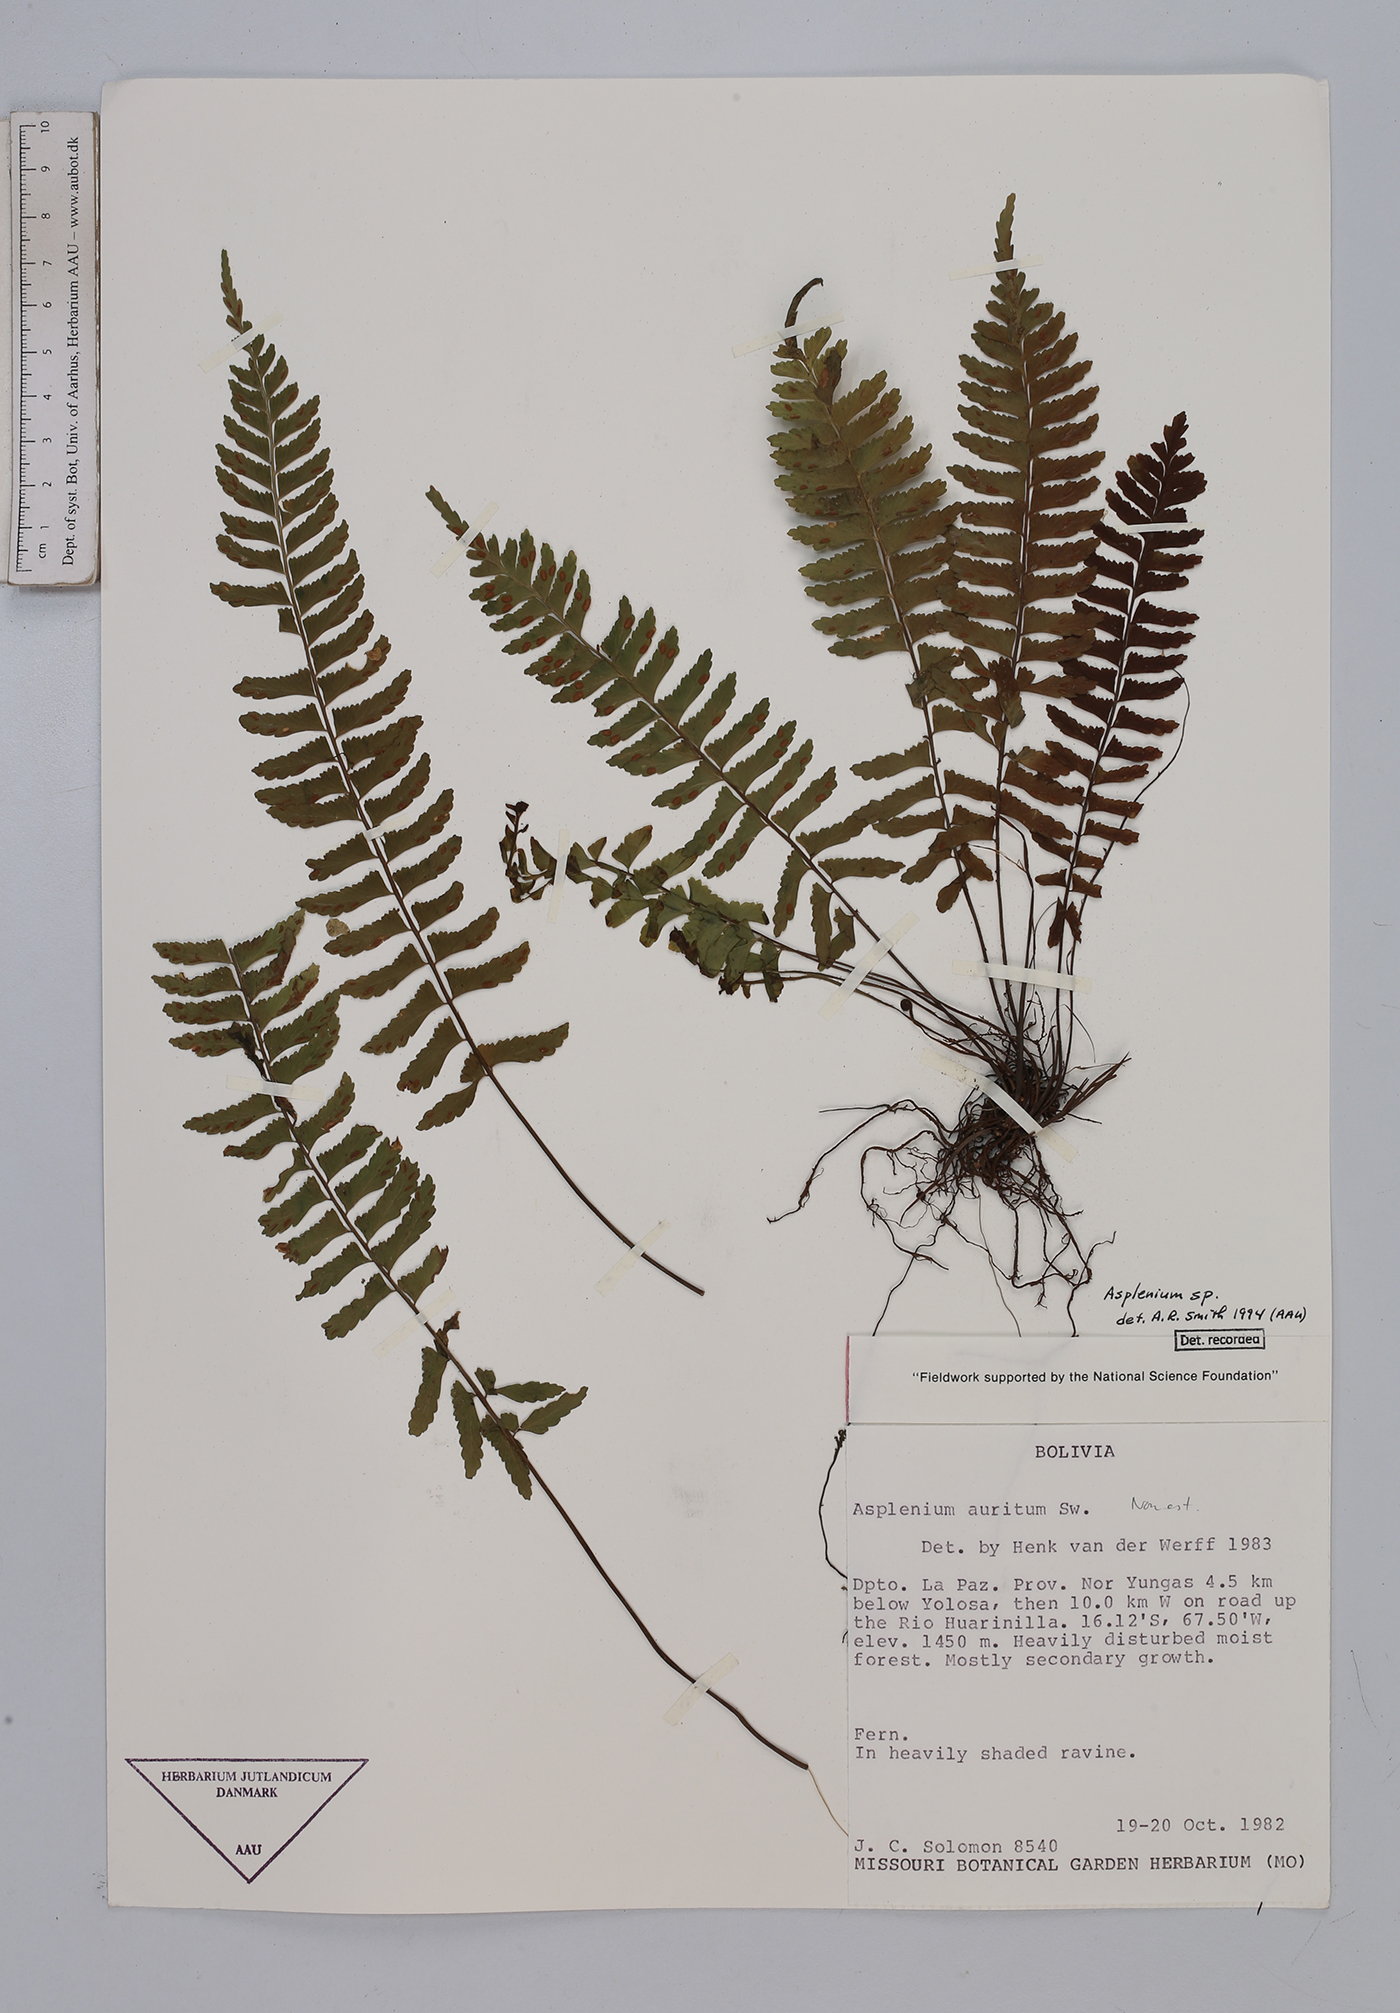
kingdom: Plantae
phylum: Tracheophyta
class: Polypodiopsida
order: Polypodiales
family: Aspleniaceae
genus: Asplenium
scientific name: Asplenium
